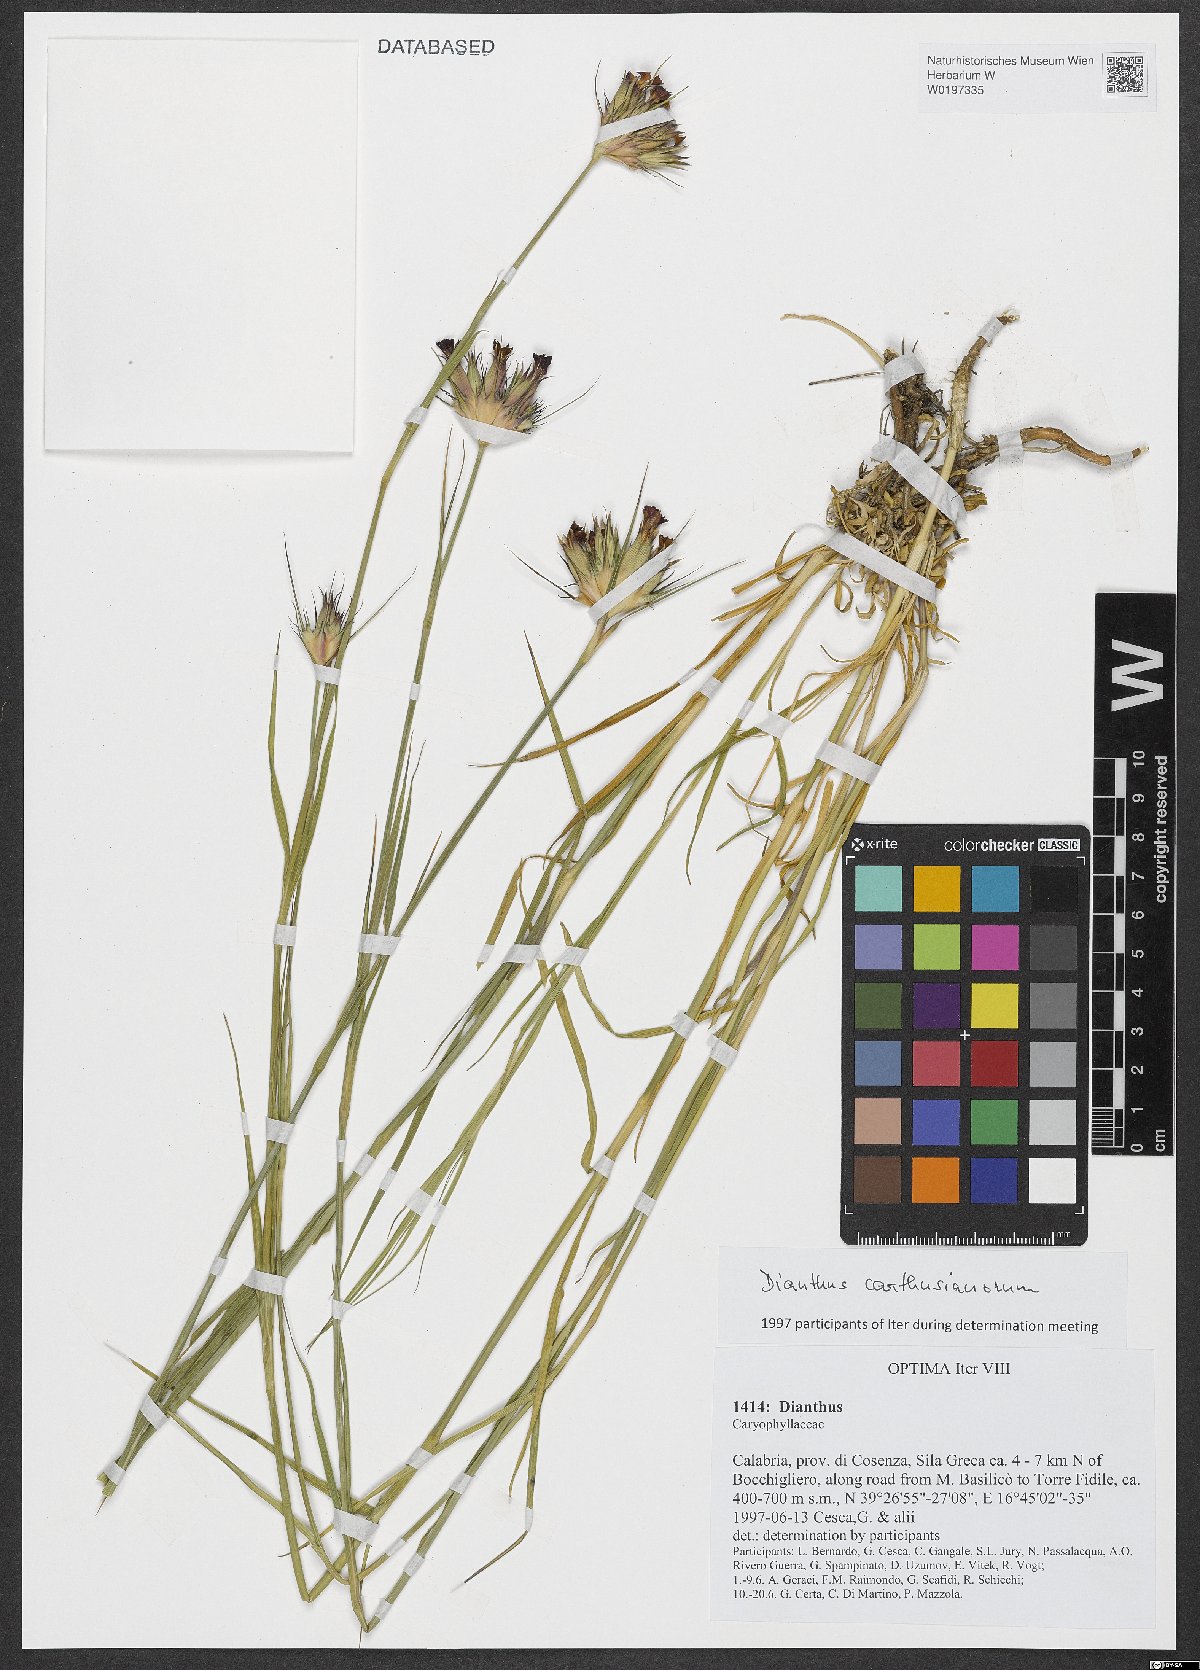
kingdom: Plantae
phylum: Tracheophyta
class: Magnoliopsida
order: Caryophyllales
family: Caryophyllaceae
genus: Dianthus
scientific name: Dianthus carthusianorum
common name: Carthusian pink
